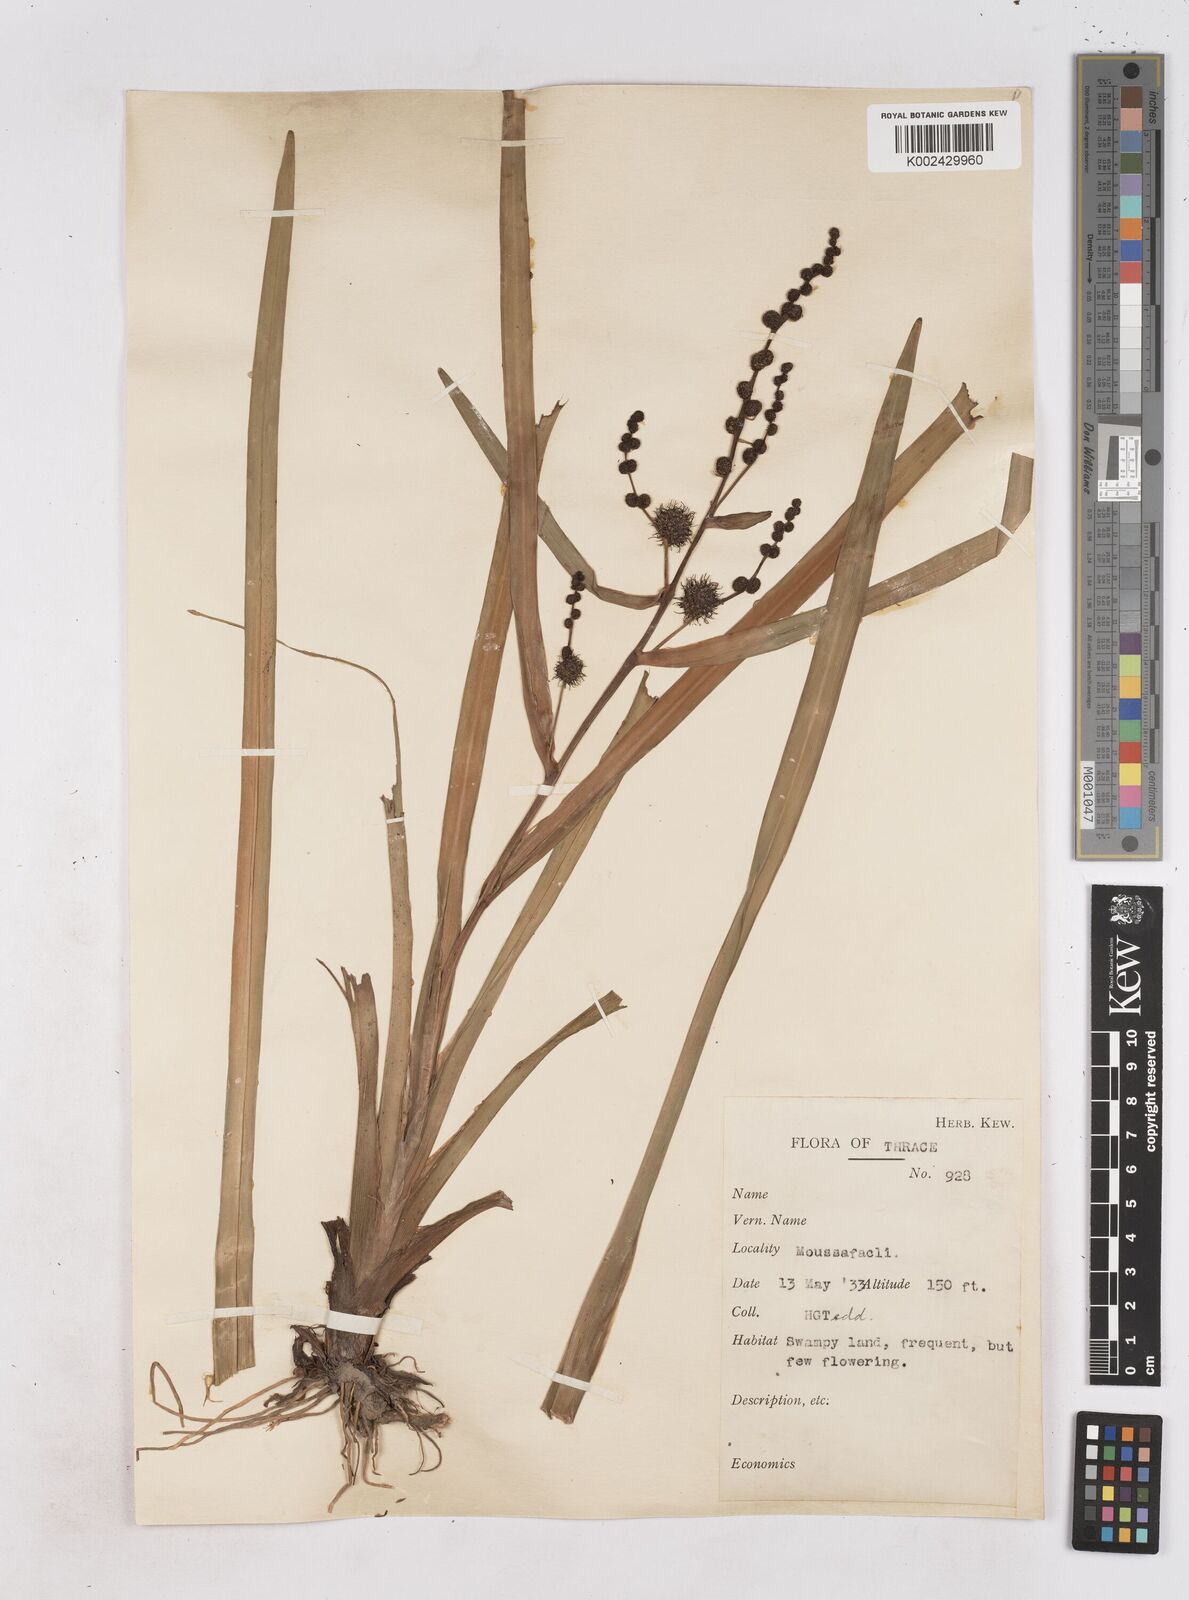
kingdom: Plantae
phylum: Tracheophyta
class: Liliopsida
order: Poales
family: Typhaceae
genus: Sparganium
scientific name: Sparganium erectum
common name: Branched bur-reed
